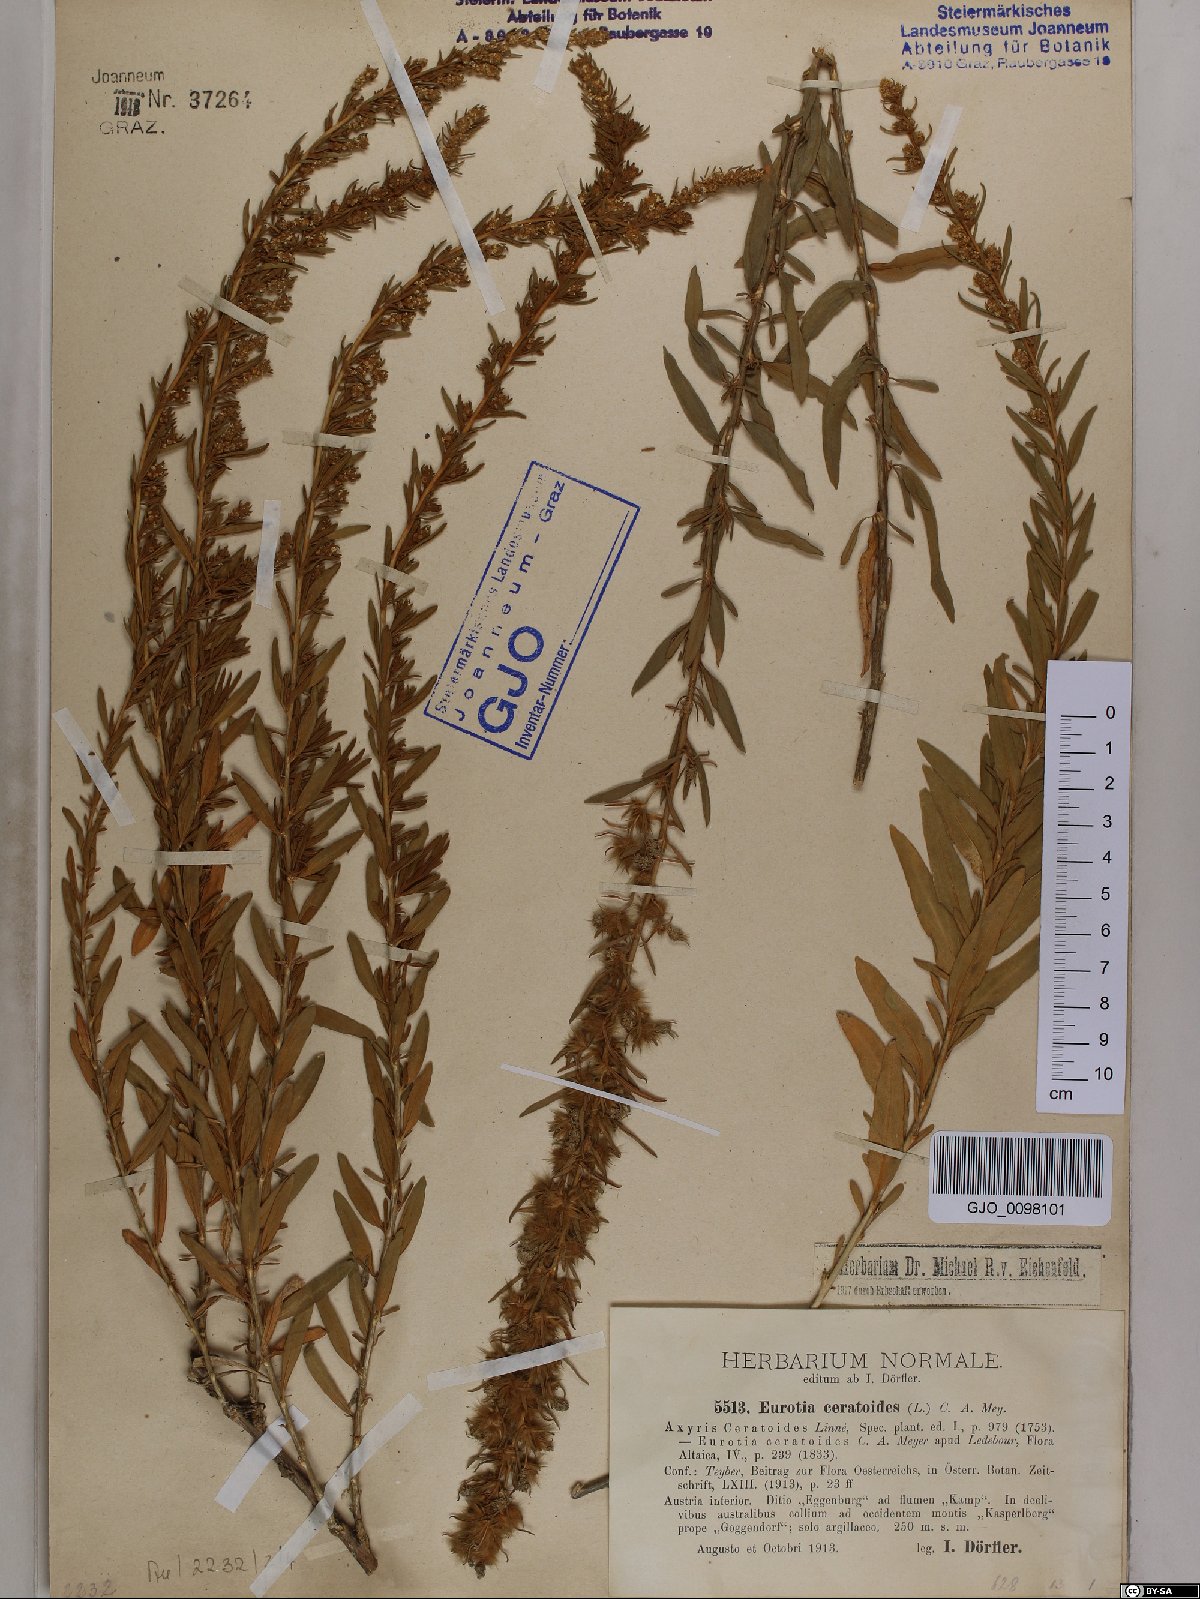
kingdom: Plantae
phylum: Tracheophyta
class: Magnoliopsida
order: Caryophyllales
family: Amaranthaceae
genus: Krascheninnikovia
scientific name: Krascheninnikovia ceratoides
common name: Pamirian winterfat
